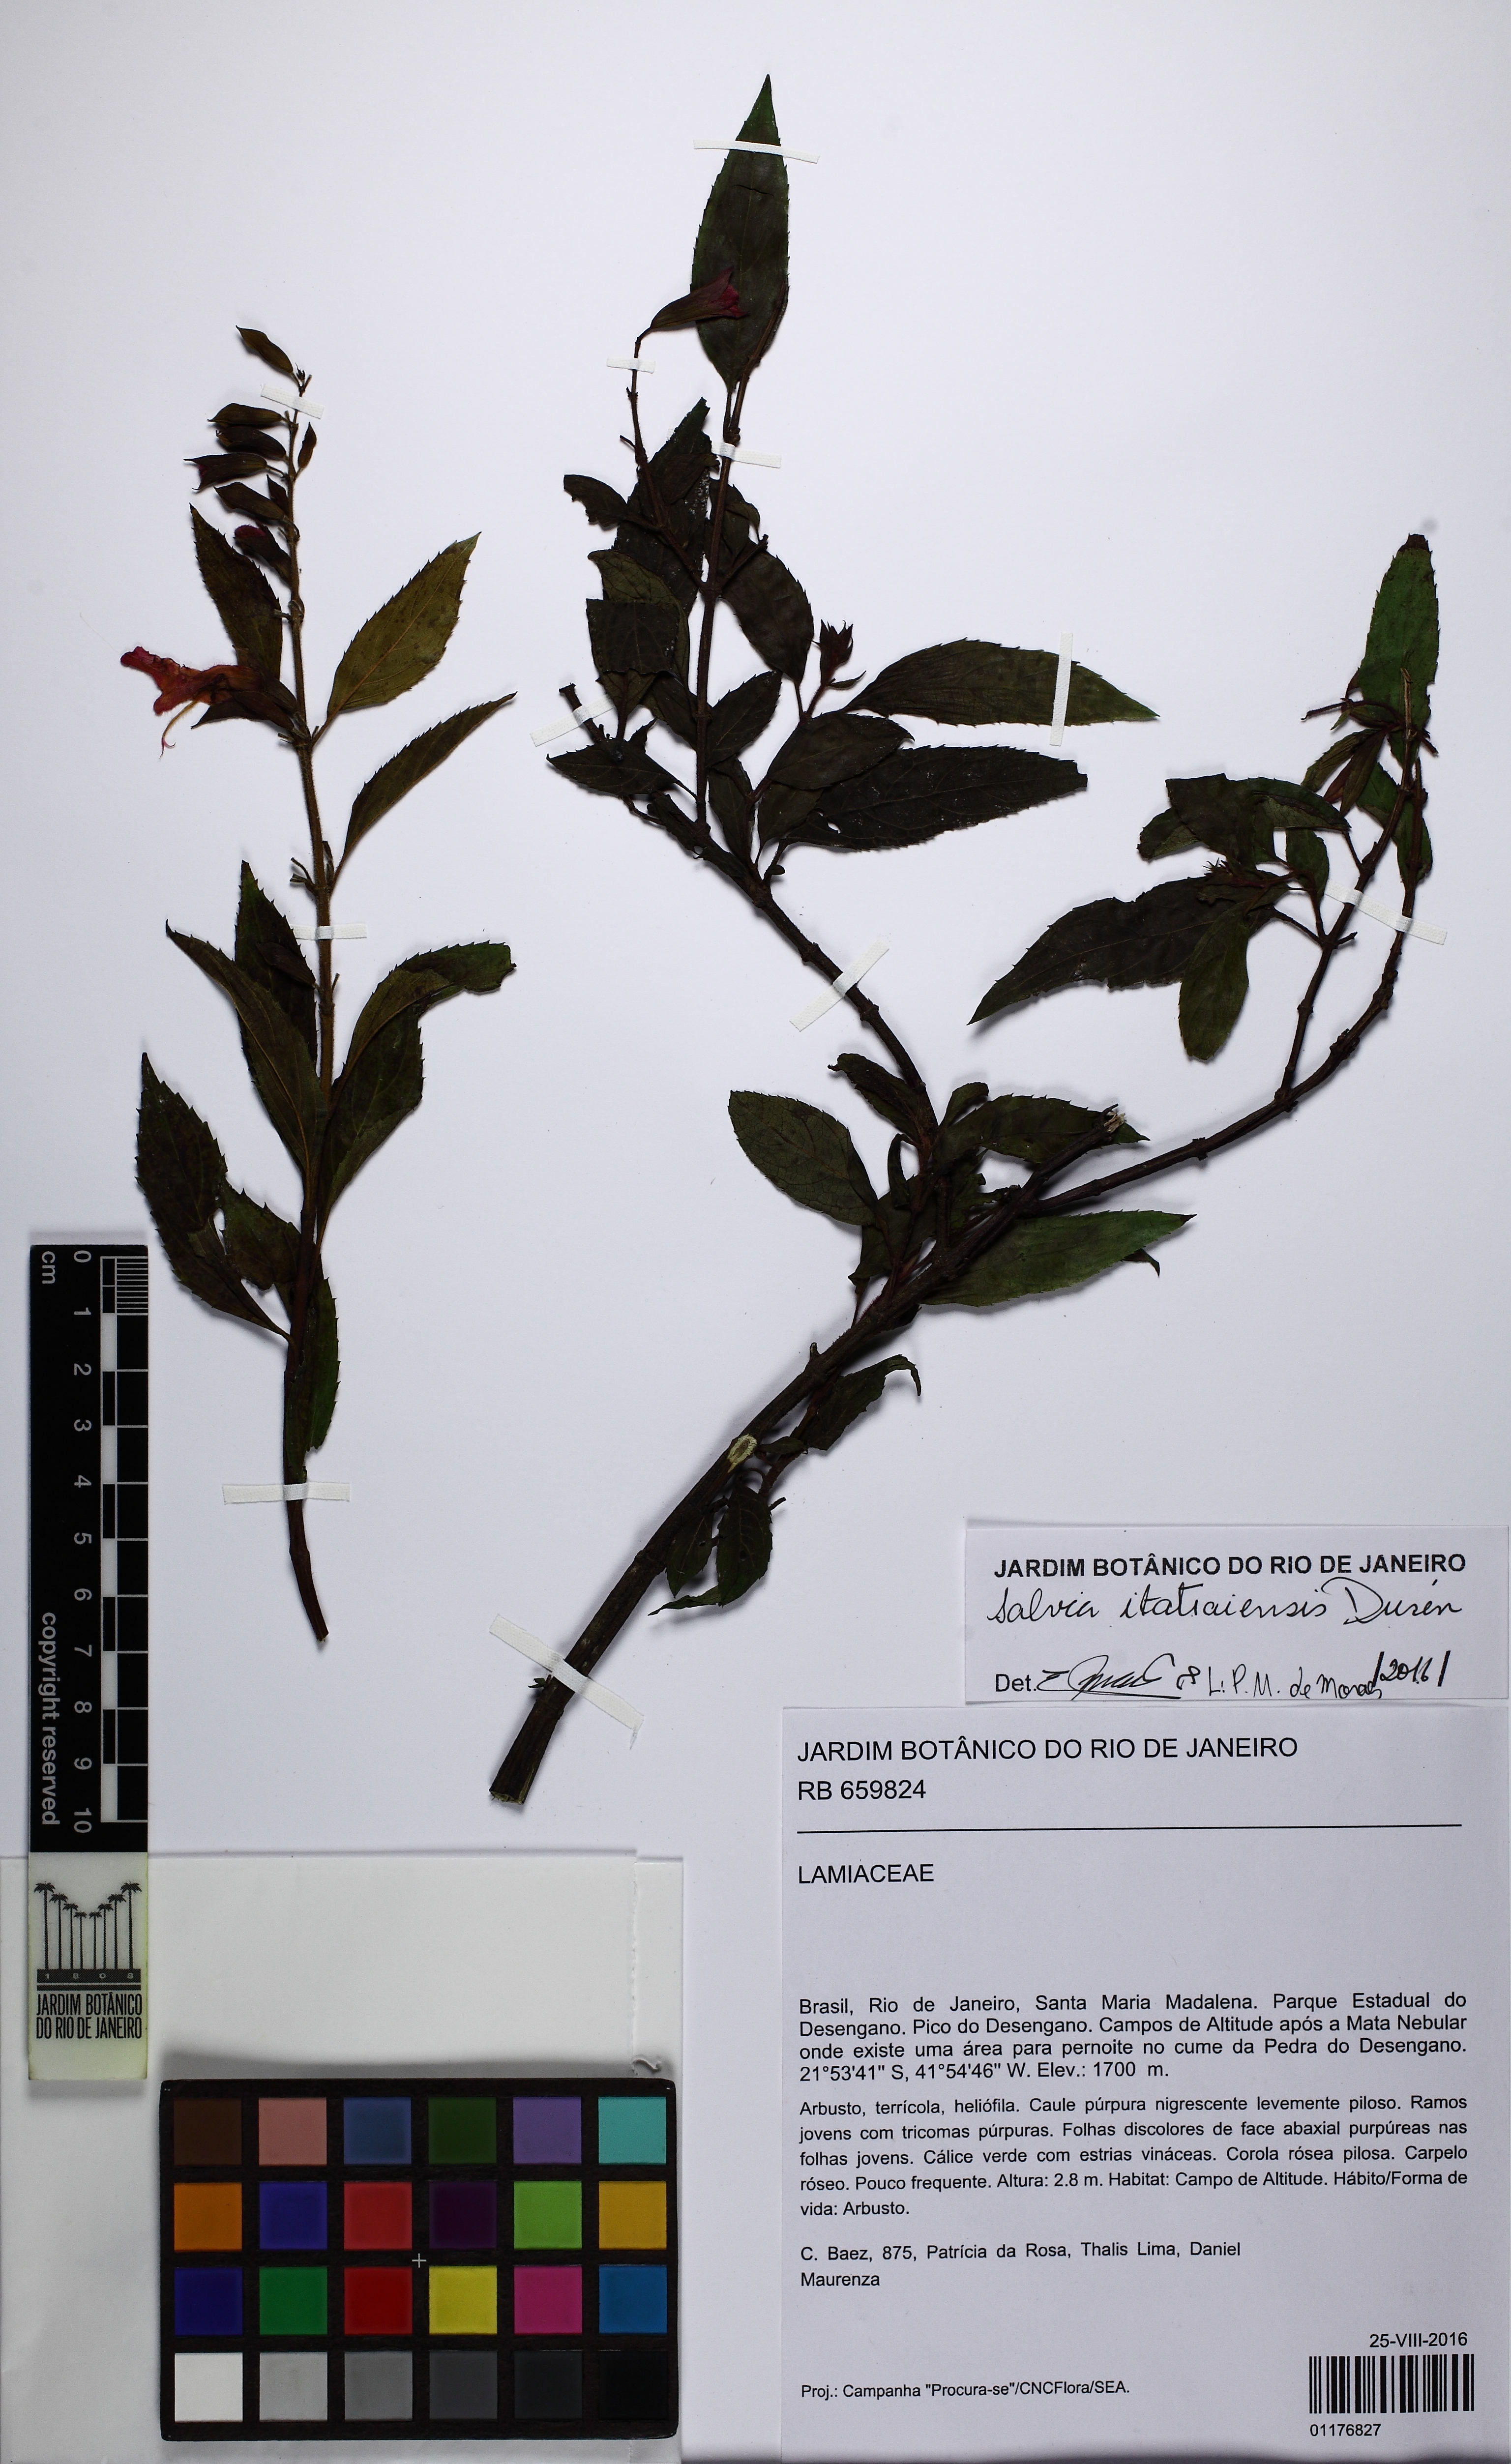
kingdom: Plantae
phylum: Tracheophyta
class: Magnoliopsida
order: Lamiales
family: Lamiaceae
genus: Salvia
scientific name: Salvia rivularis
